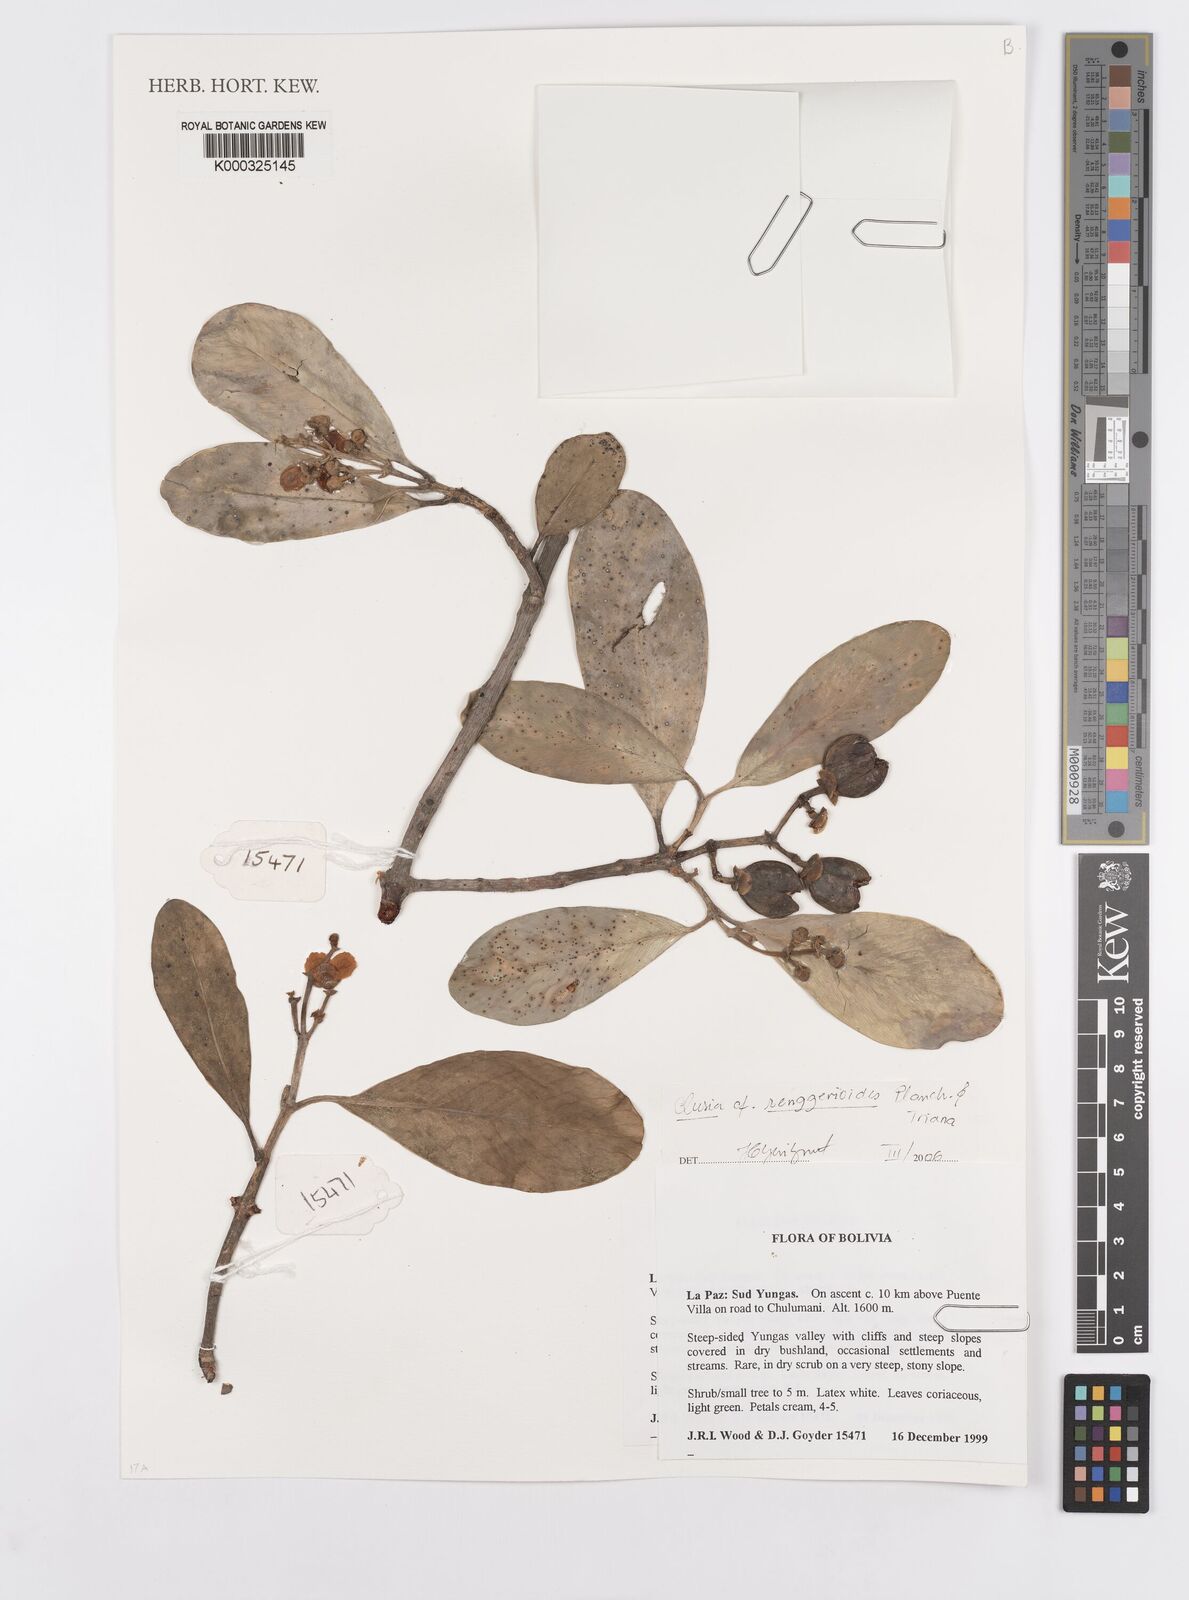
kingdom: Plantae
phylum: Tracheophyta
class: Magnoliopsida
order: Malpighiales
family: Clusiaceae
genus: Clusia
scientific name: Clusia renggerioides
